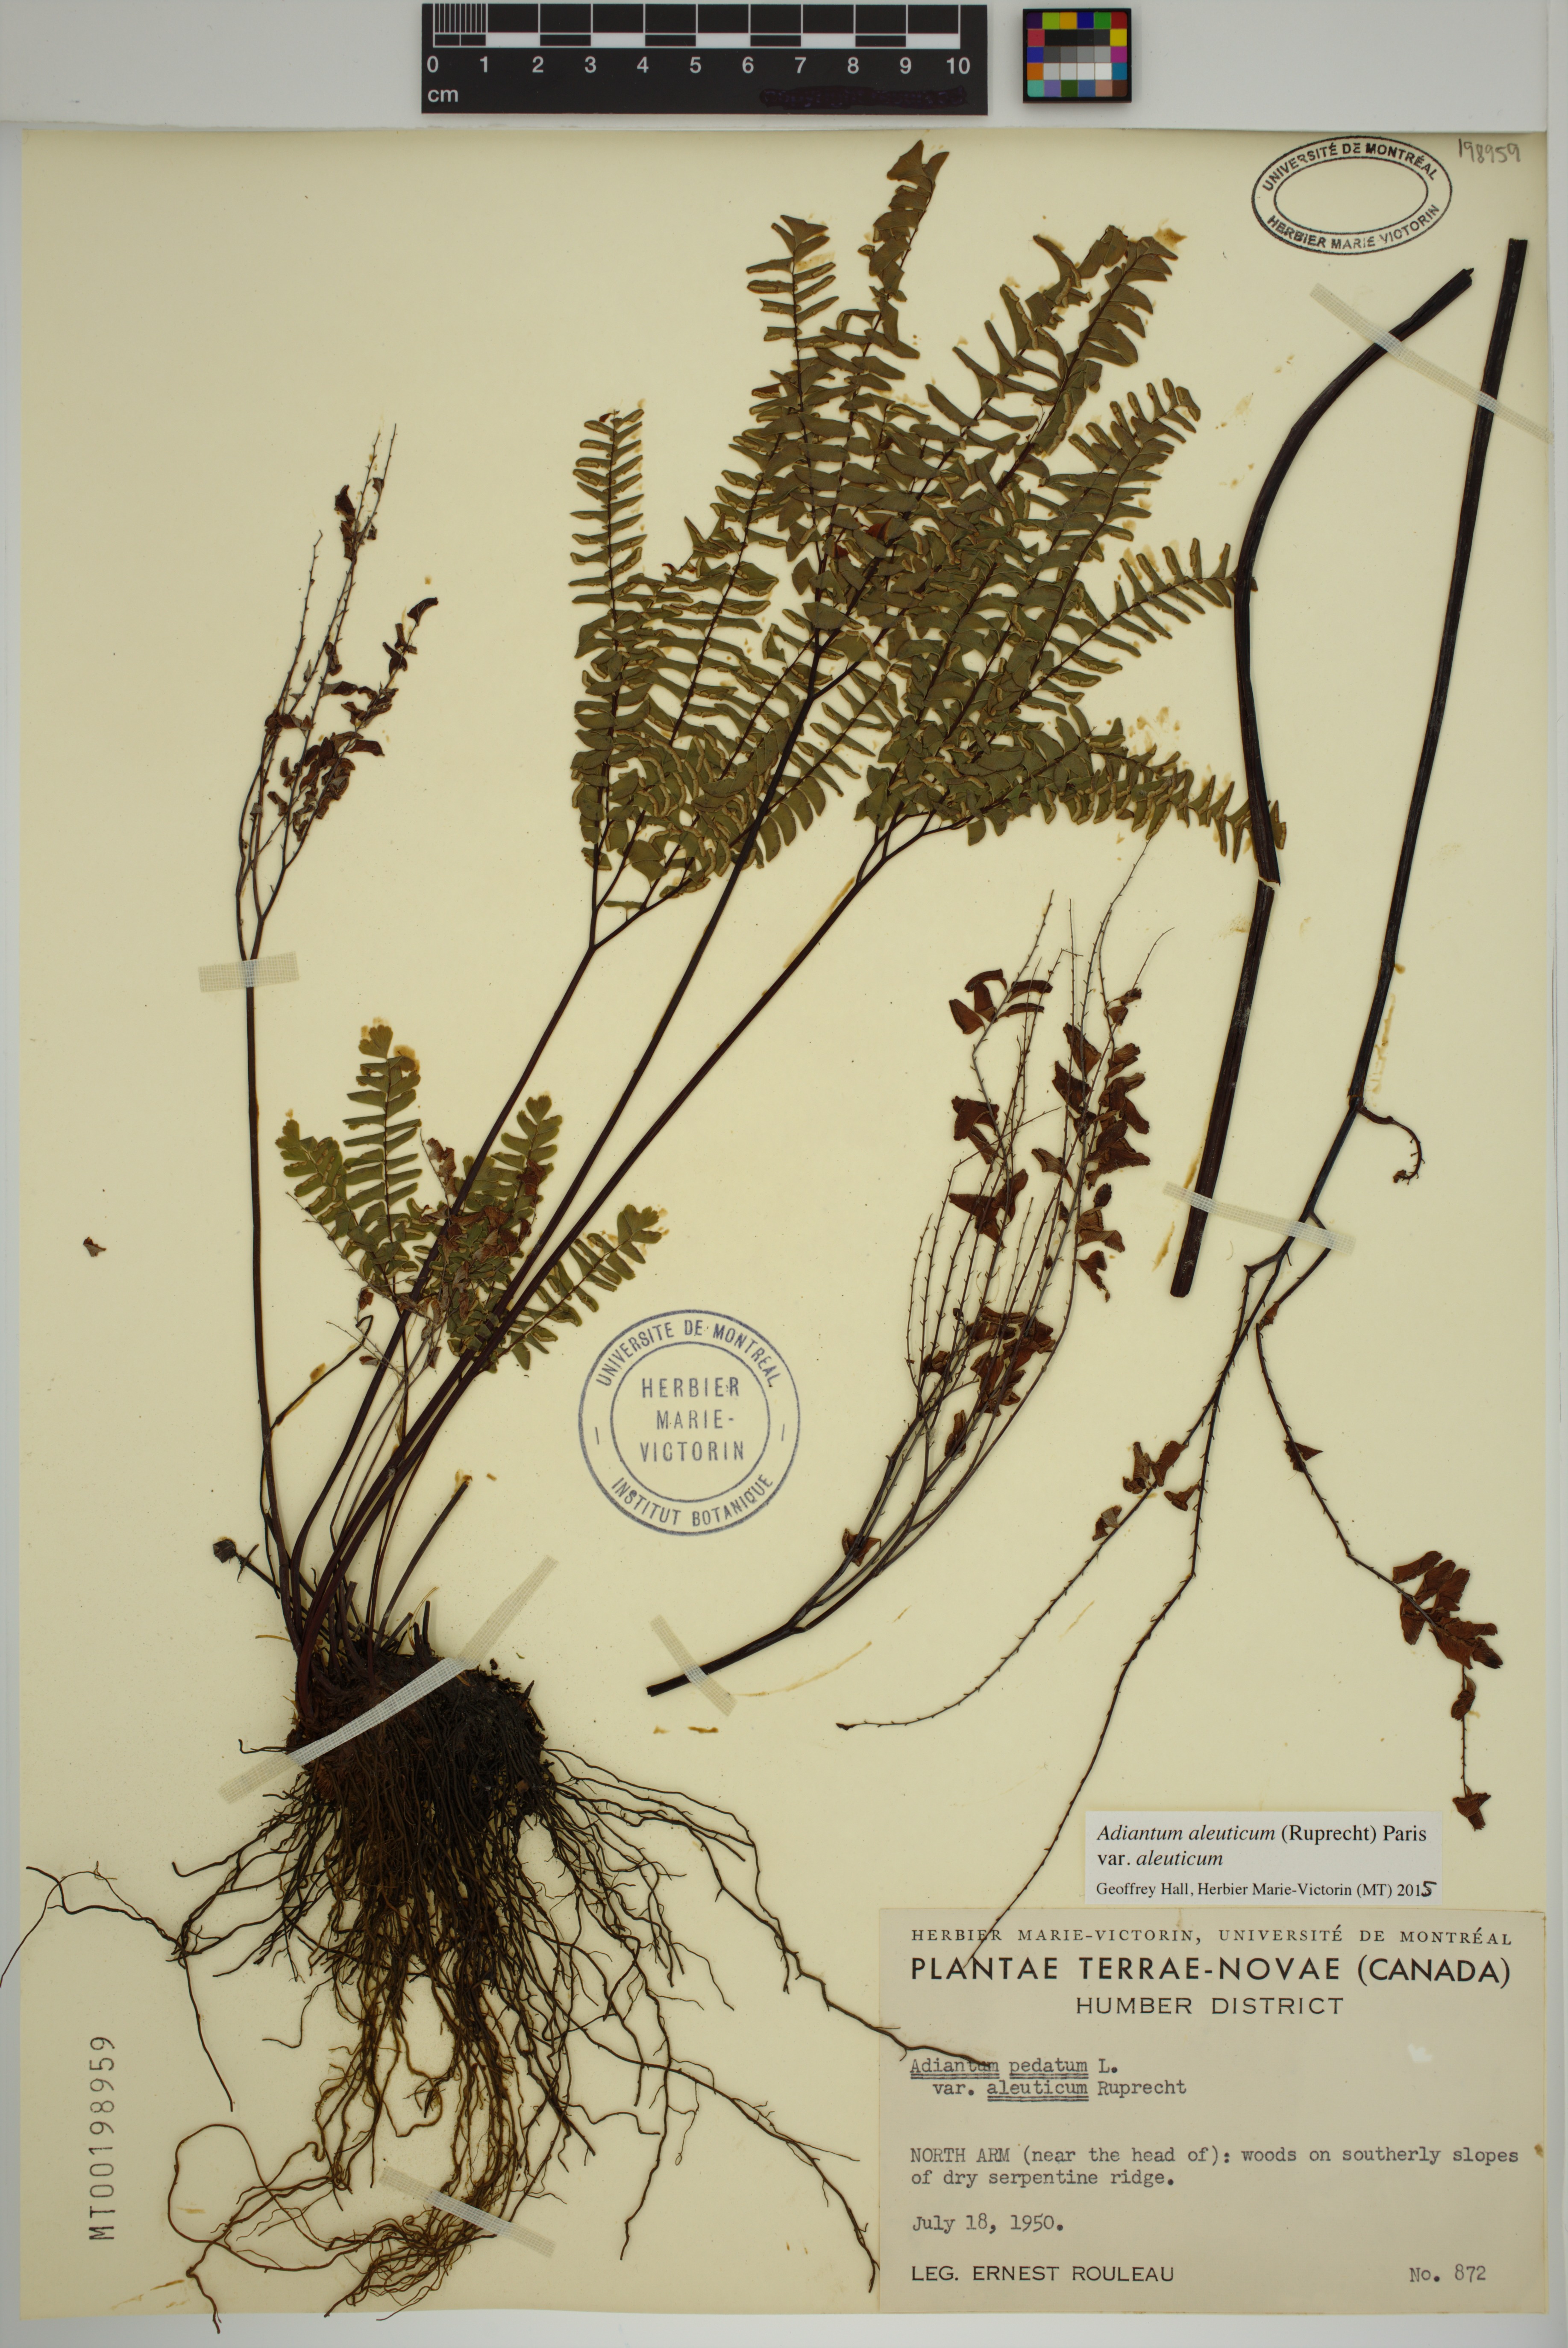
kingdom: Plantae
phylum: Tracheophyta
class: Polypodiopsida
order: Polypodiales
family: Pteridaceae
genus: Adiantum
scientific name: Adiantum aleuticum
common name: Aleutian maidenhair fern
